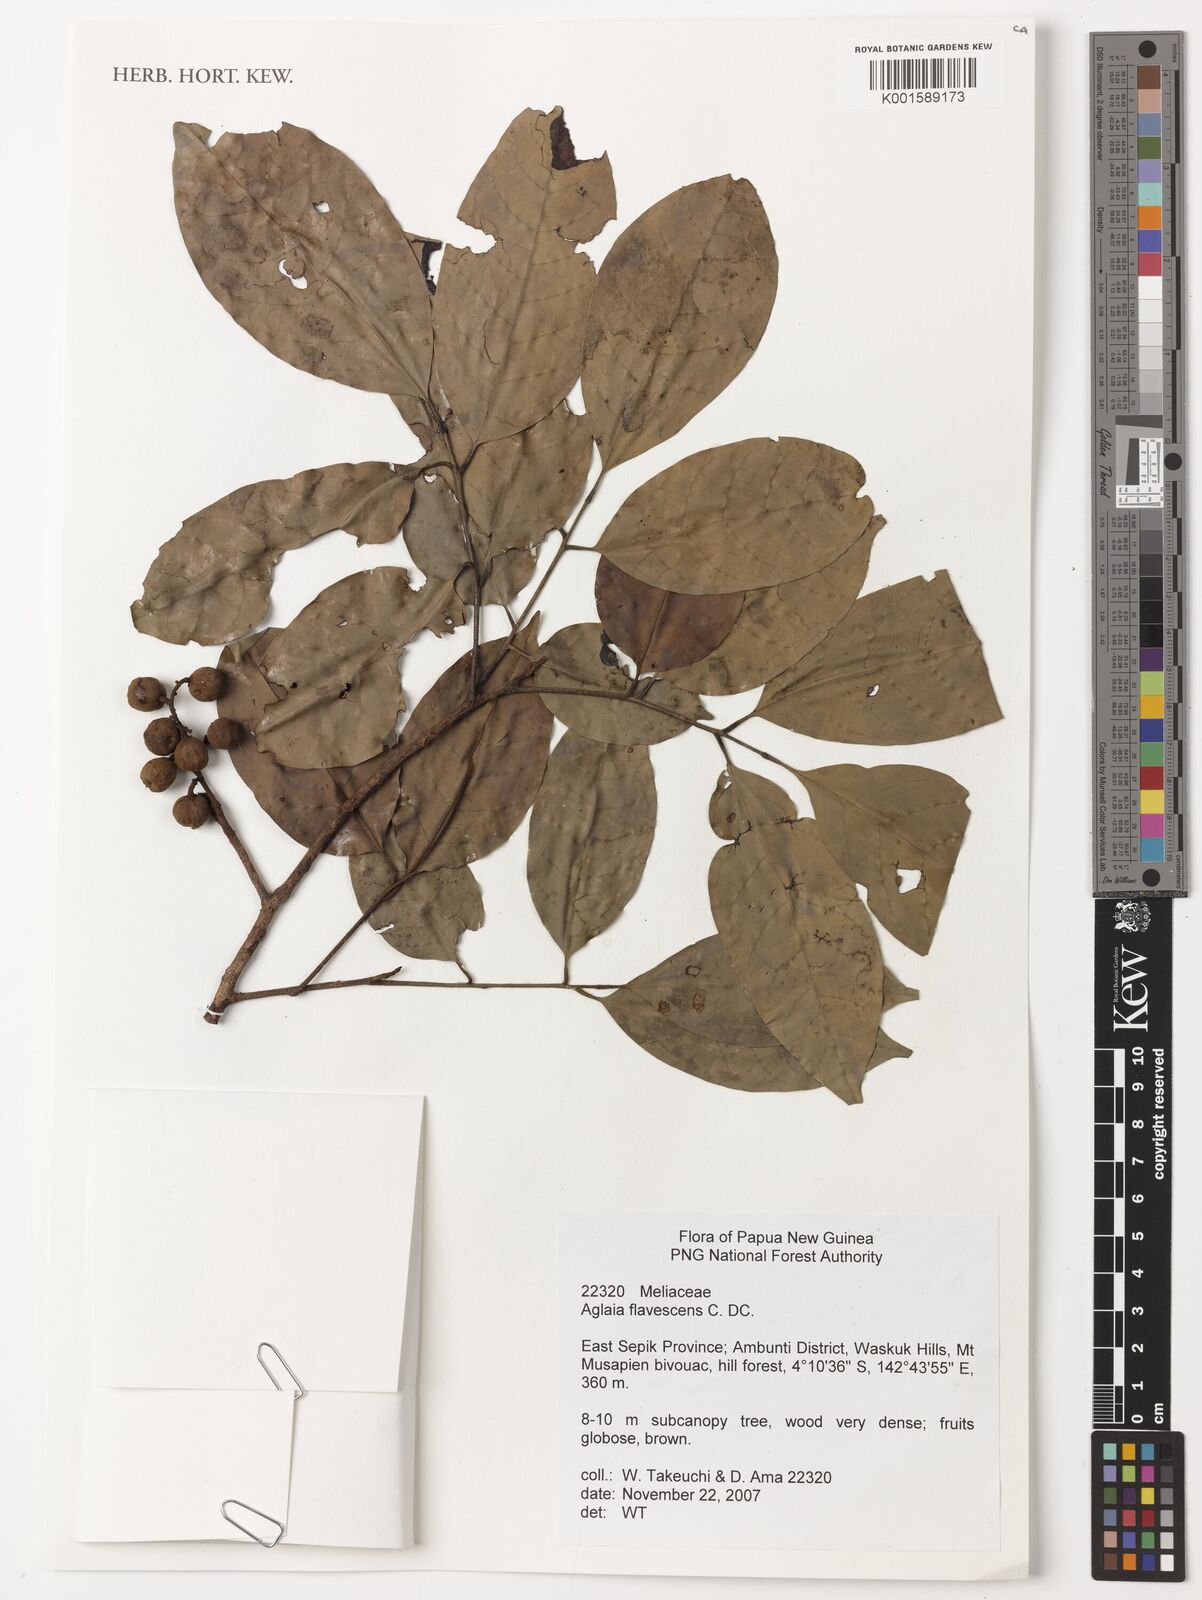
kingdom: Plantae
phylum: Tracheophyta
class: Magnoliopsida
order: Sapindales
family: Meliaceae
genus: Aglaia
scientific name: Aglaia flavescens
